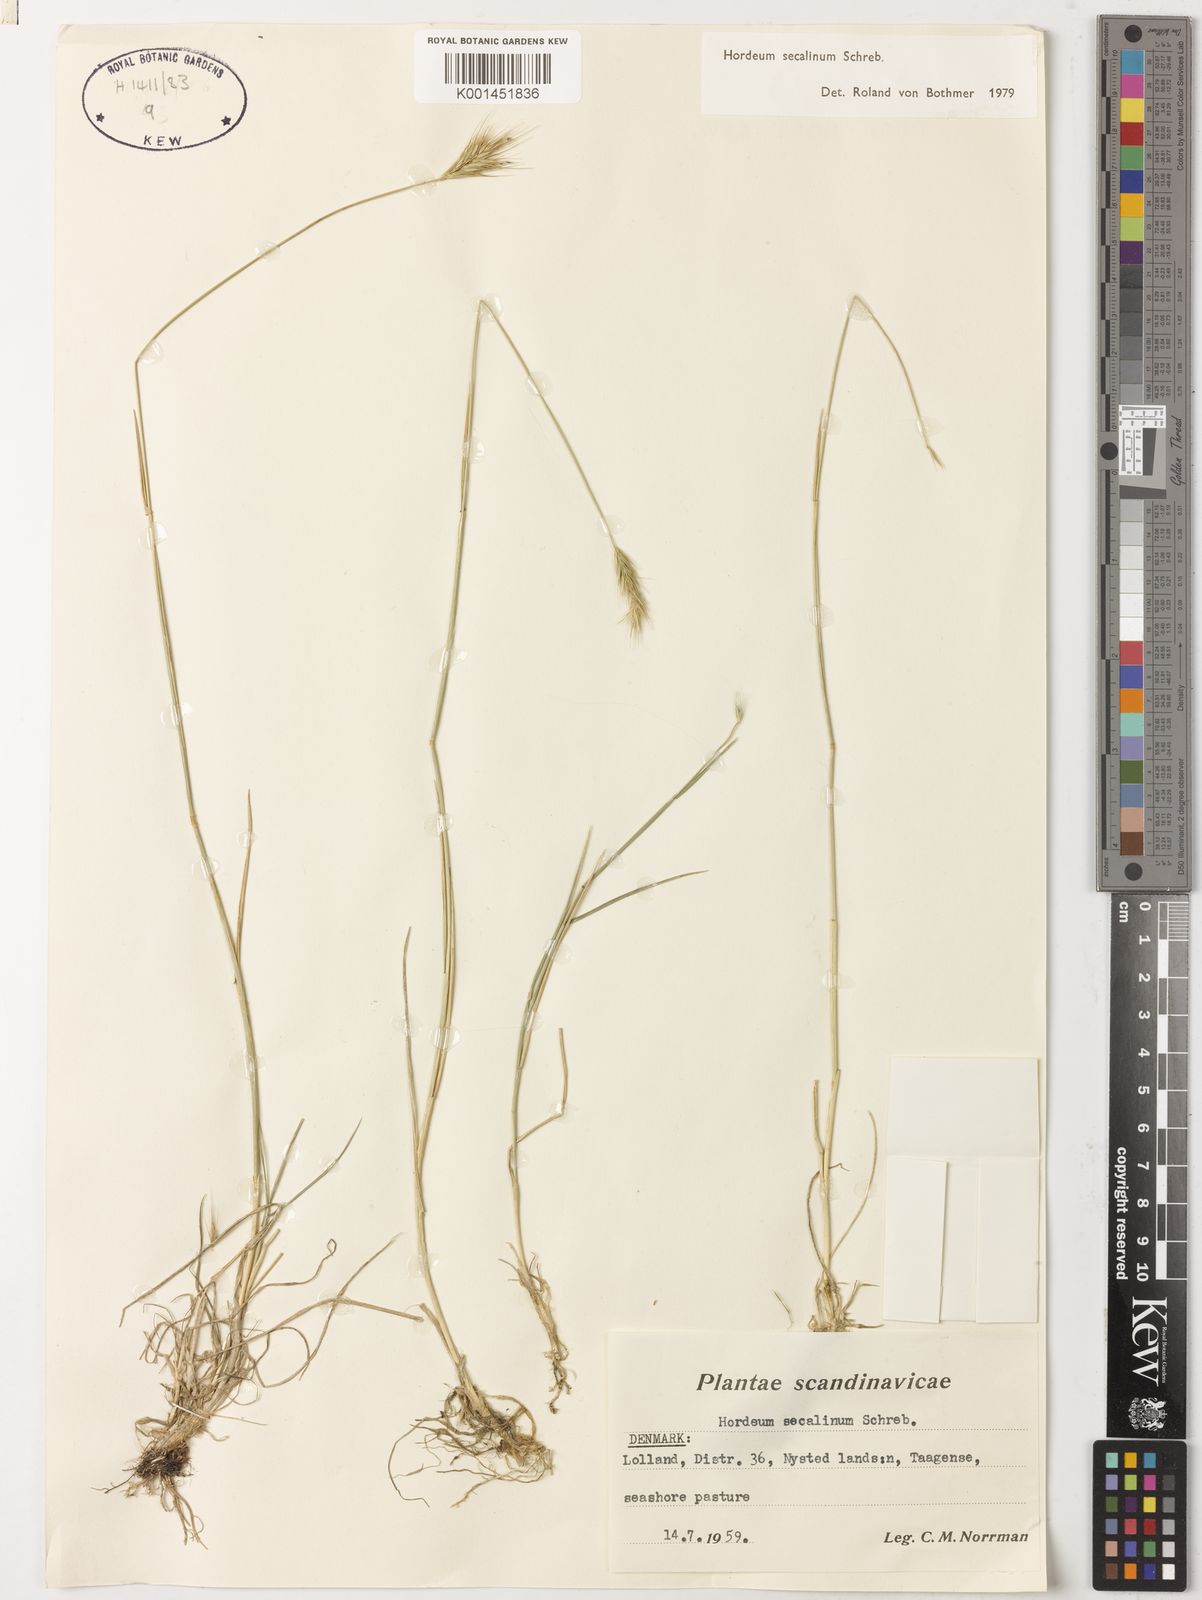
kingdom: Plantae
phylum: Tracheophyta
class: Liliopsida
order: Poales
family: Poaceae
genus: Hordeum
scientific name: Hordeum secalinum
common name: Meadow barley
